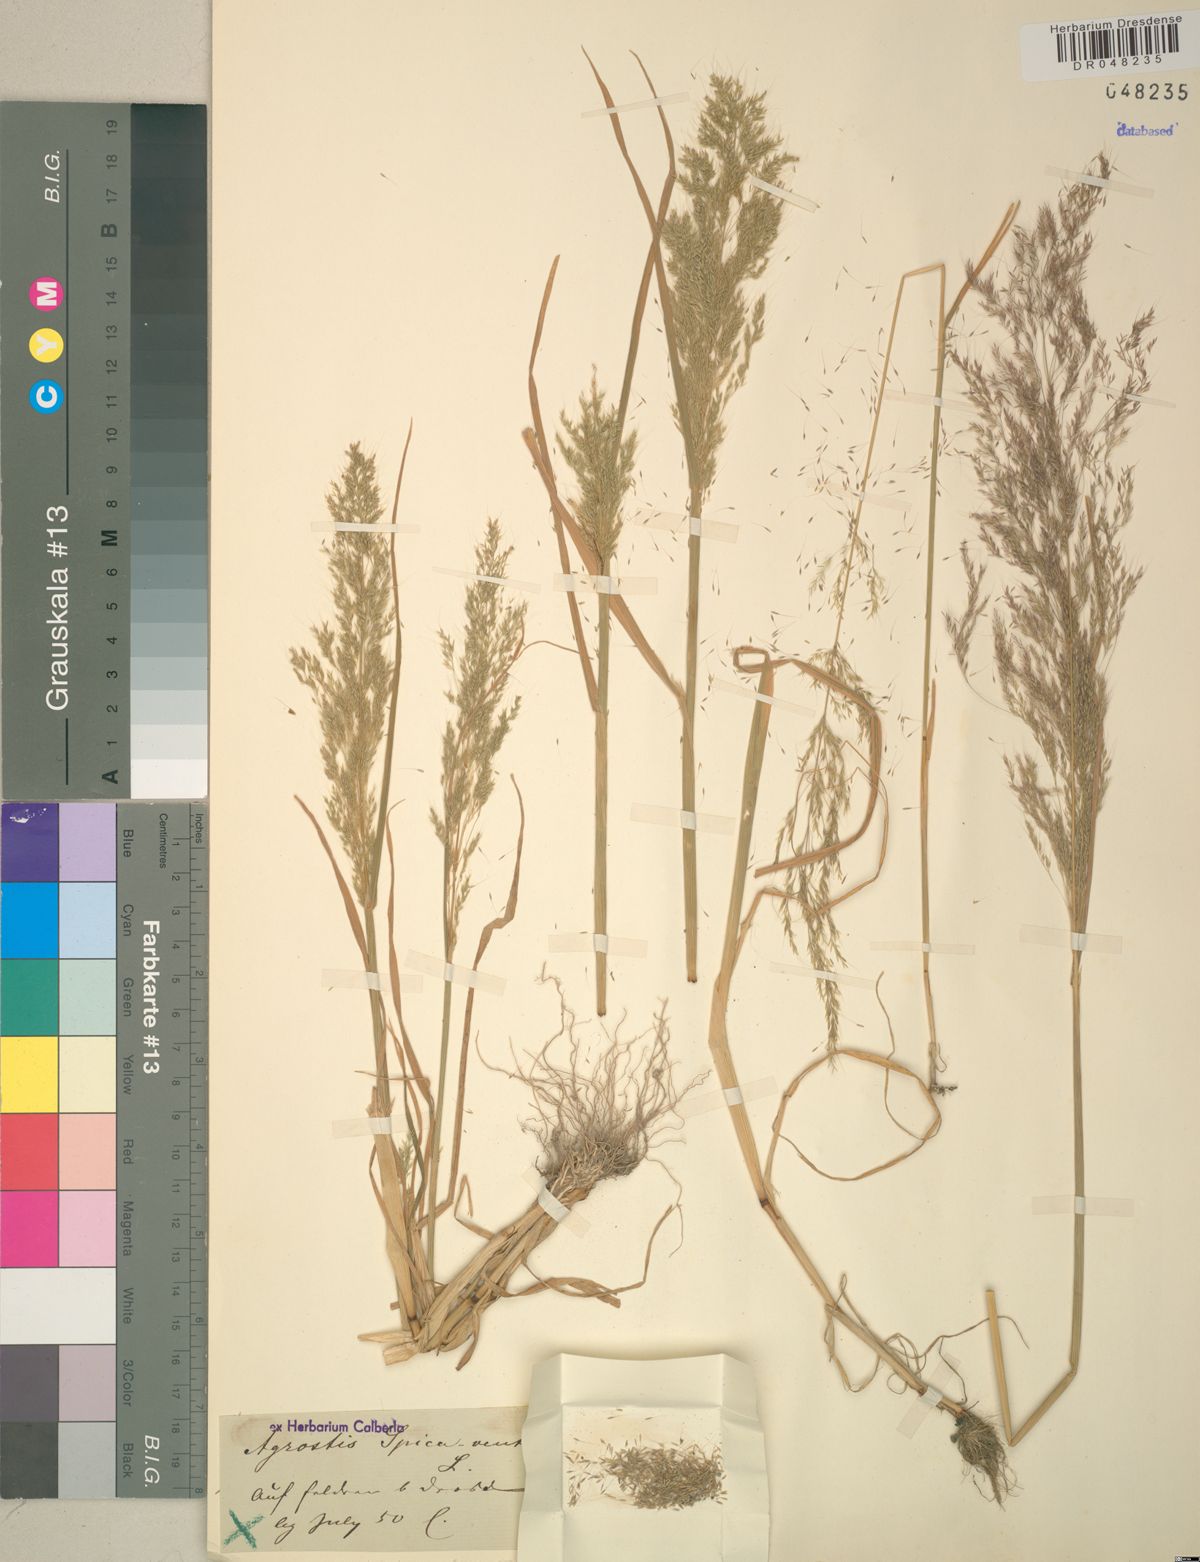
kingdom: Plantae
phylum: Tracheophyta
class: Liliopsida
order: Poales
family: Poaceae
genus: Apera
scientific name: Apera spica-venti
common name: Loose silky-bent
